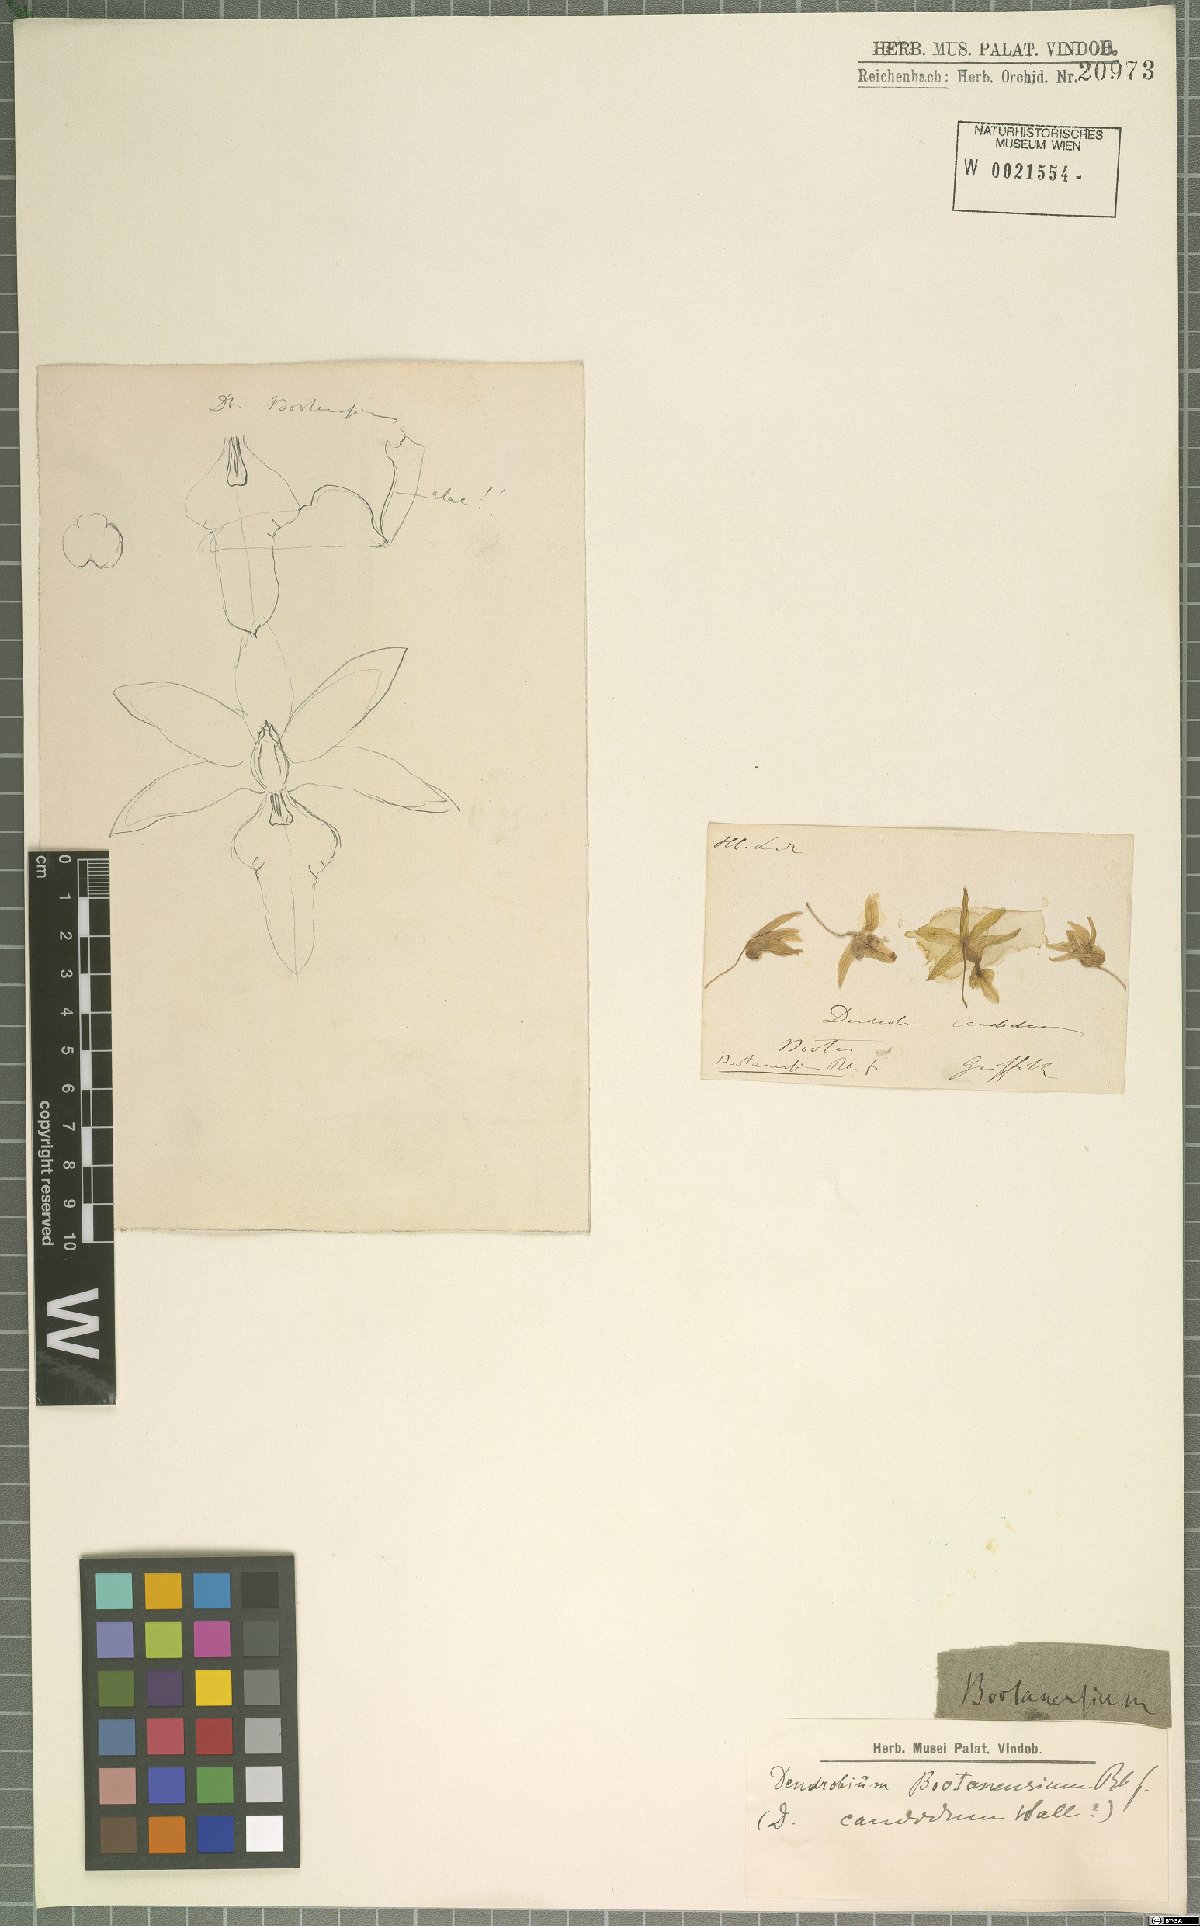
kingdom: Plantae
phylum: Tracheophyta
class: Liliopsida
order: Asparagales
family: Orchidaceae
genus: Dendrobium
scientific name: Dendrobium moniliforme
